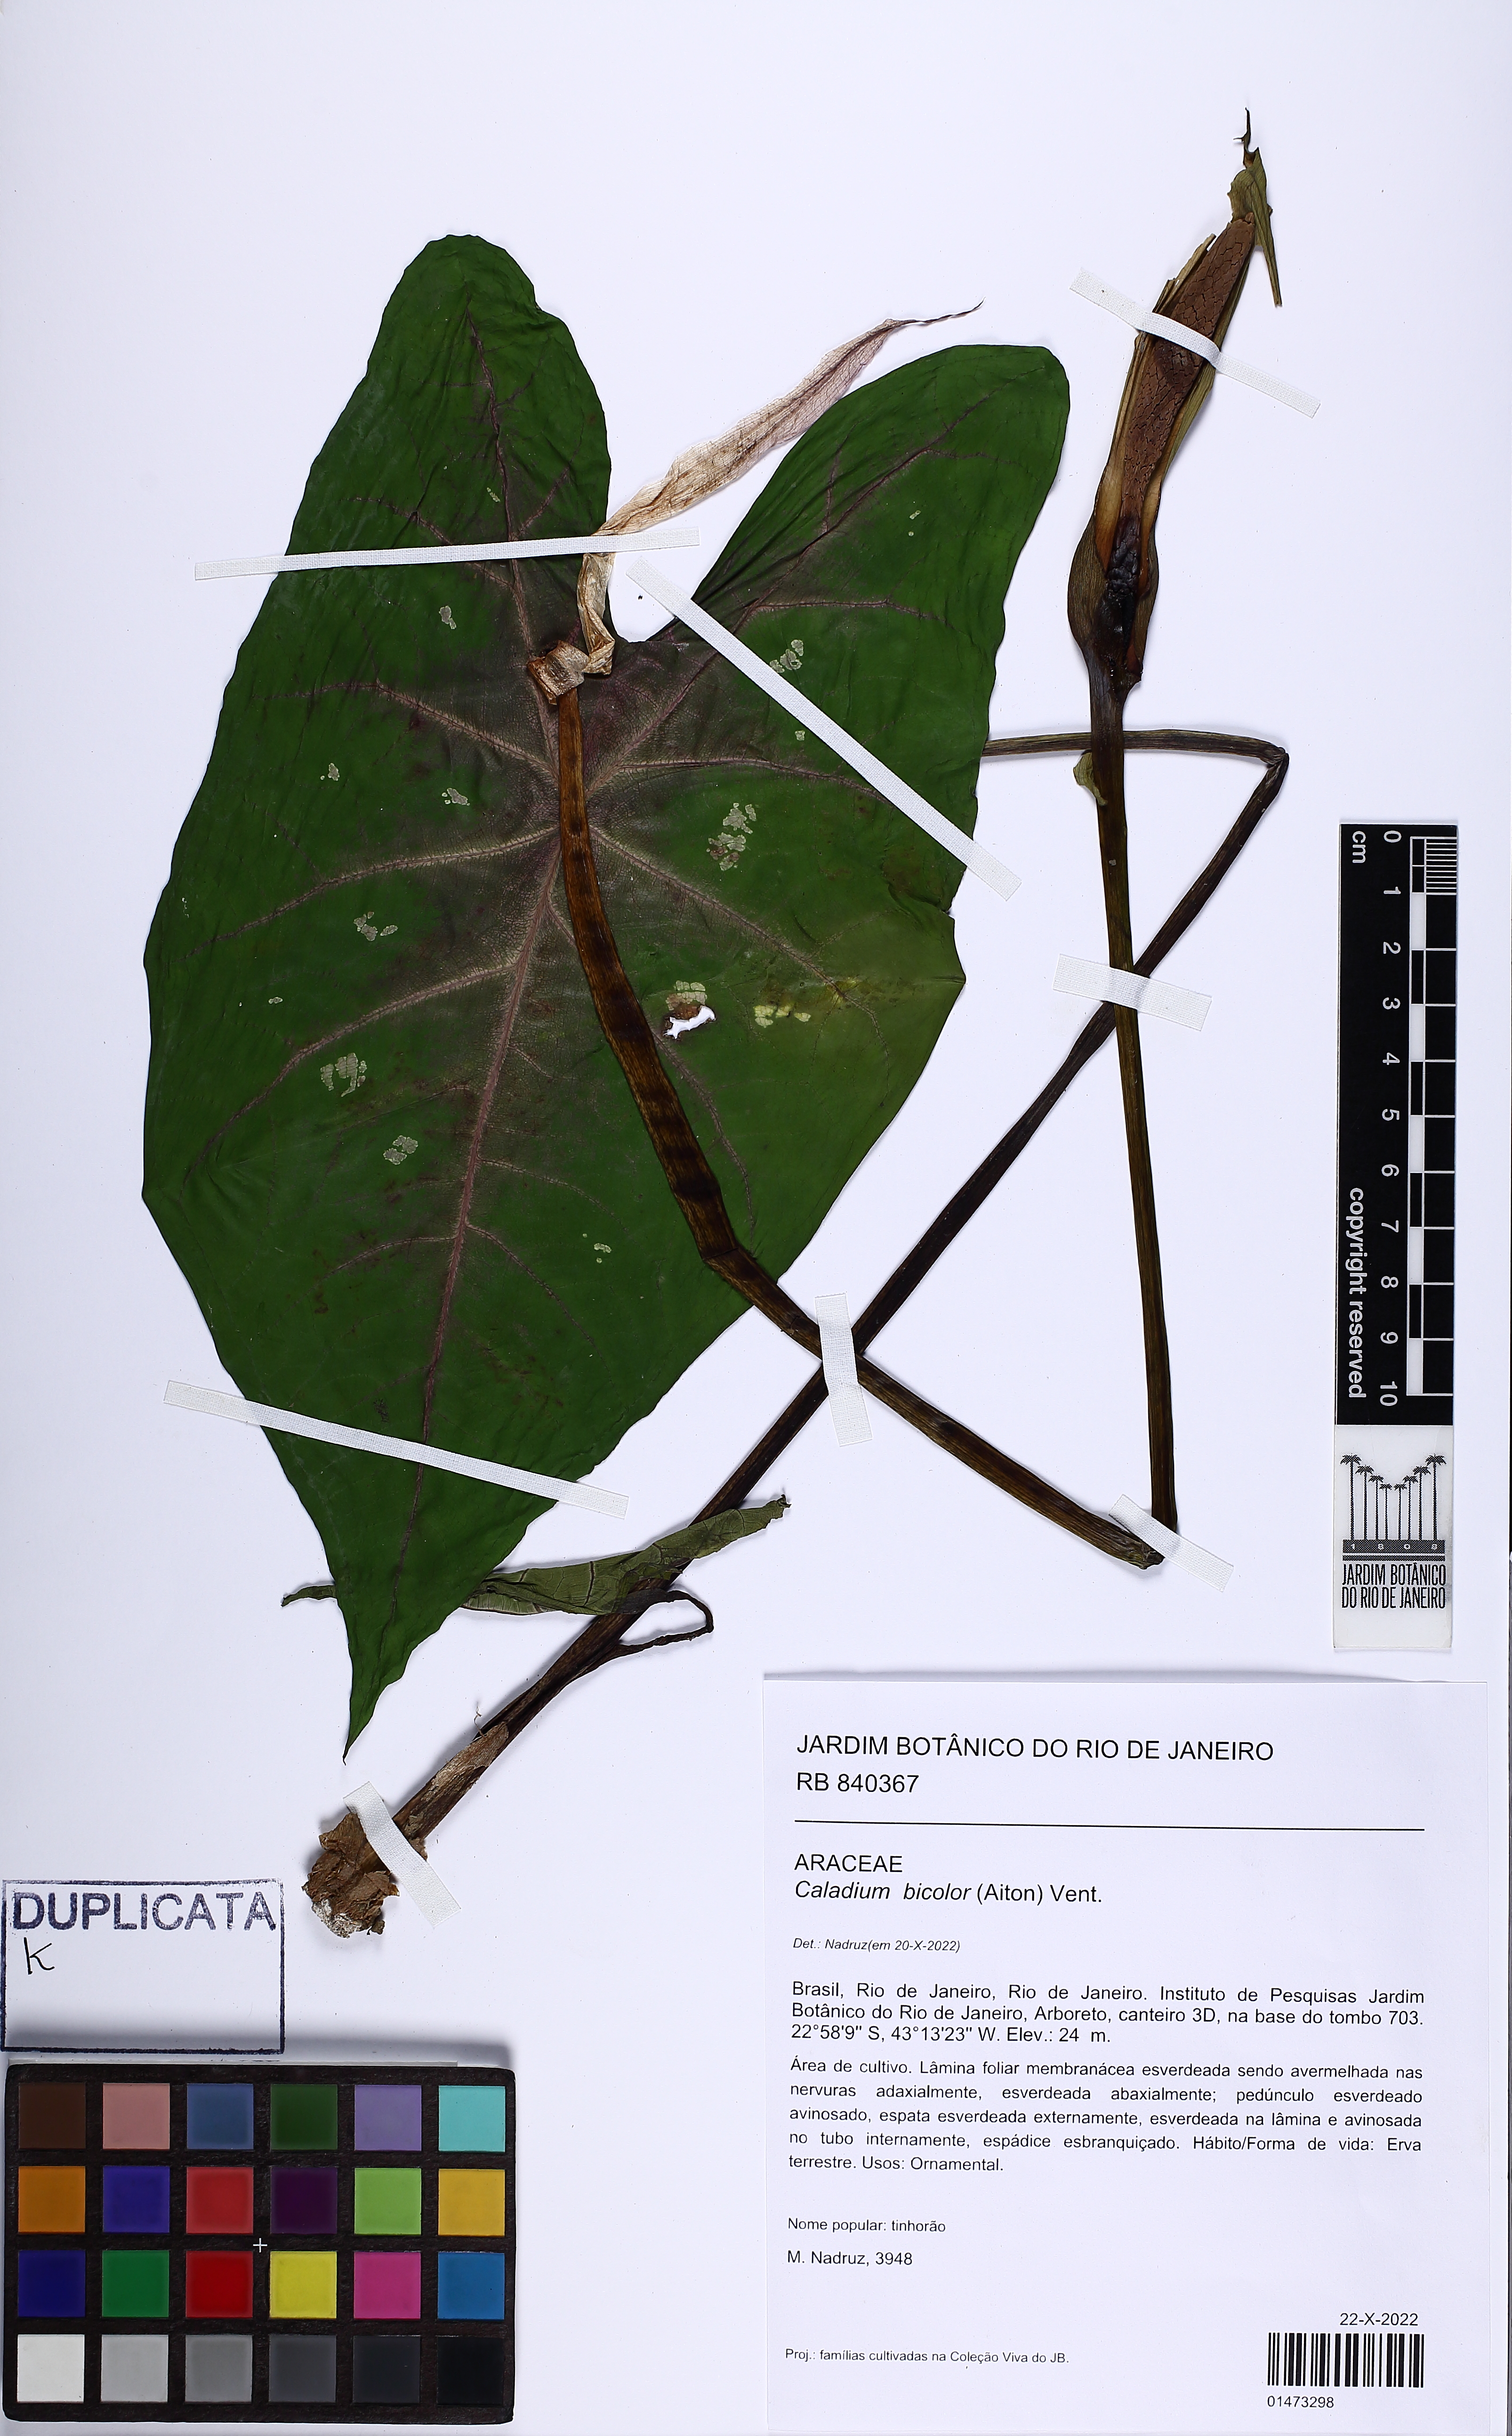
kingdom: Plantae
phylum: Tracheophyta
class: Liliopsida
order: Alismatales
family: Araceae
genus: Caladium
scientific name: Caladium bicolor
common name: Artist's pallet
